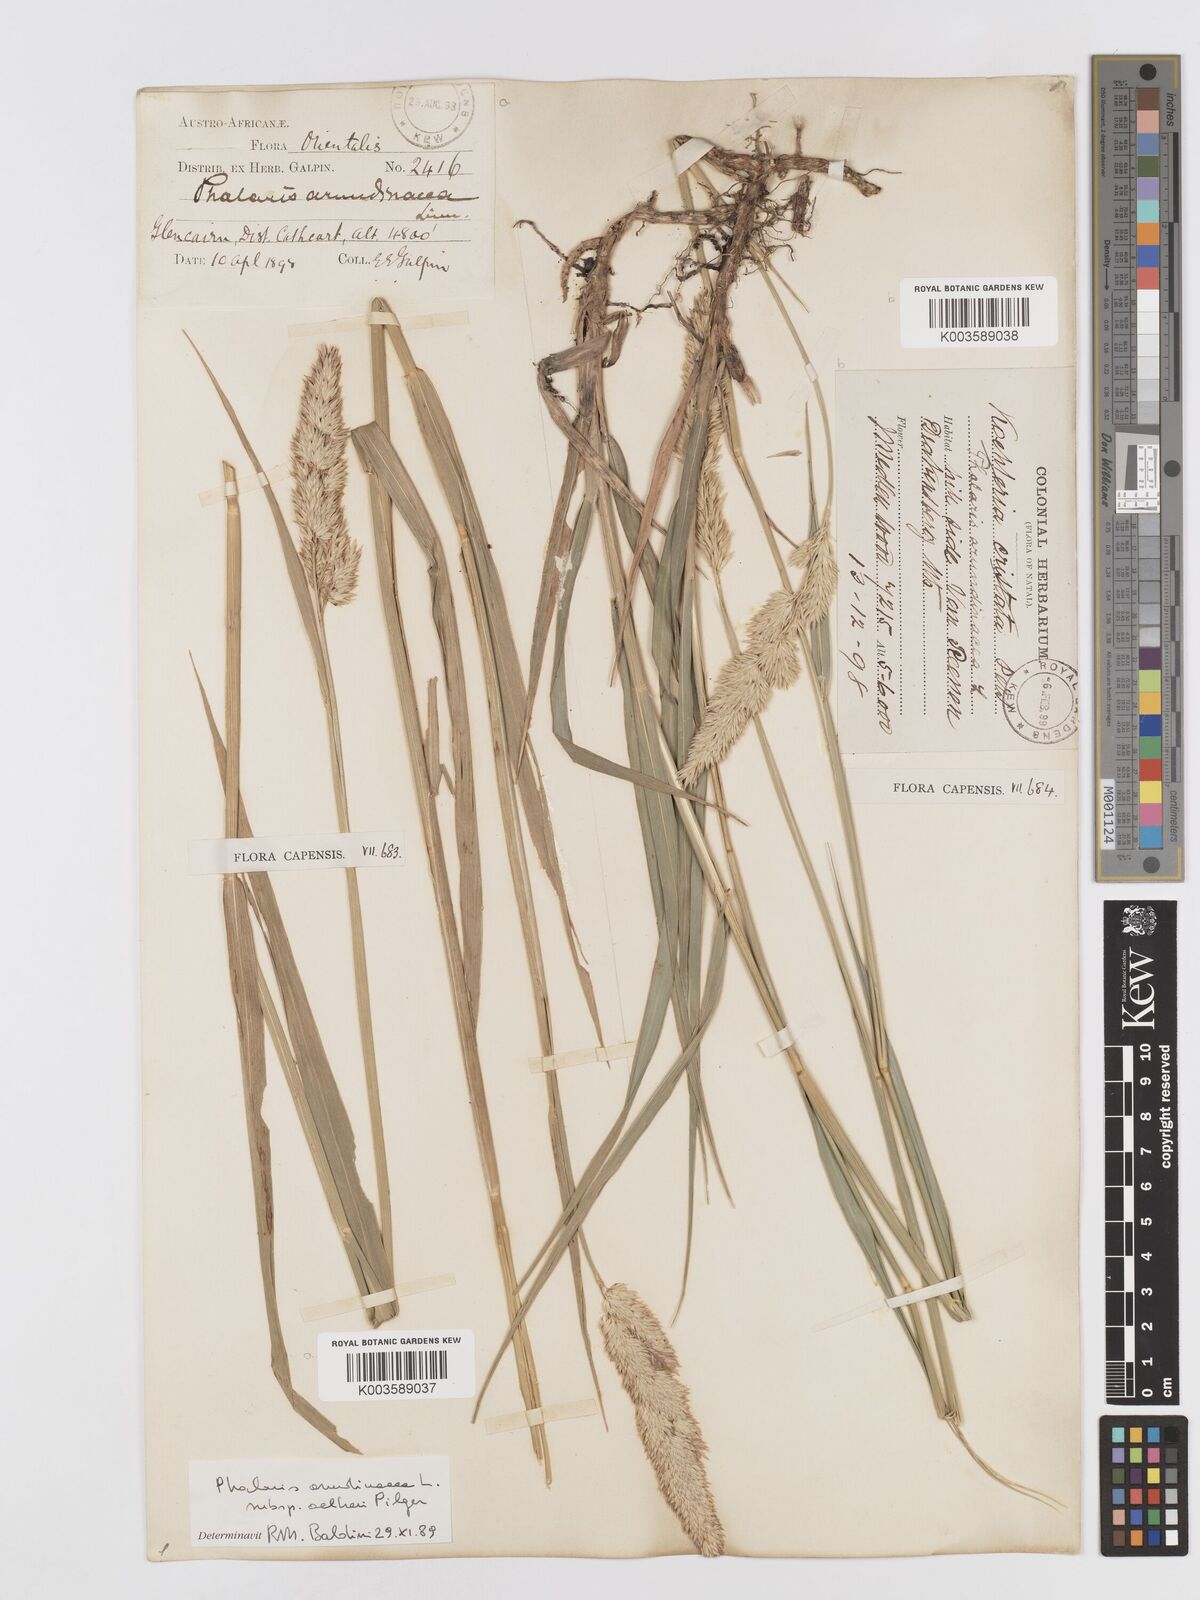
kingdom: Plantae
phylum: Tracheophyta
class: Liliopsida
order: Poales
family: Poaceae
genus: Phalaris
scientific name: Phalaris arundinacea
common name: Reed canary-grass
